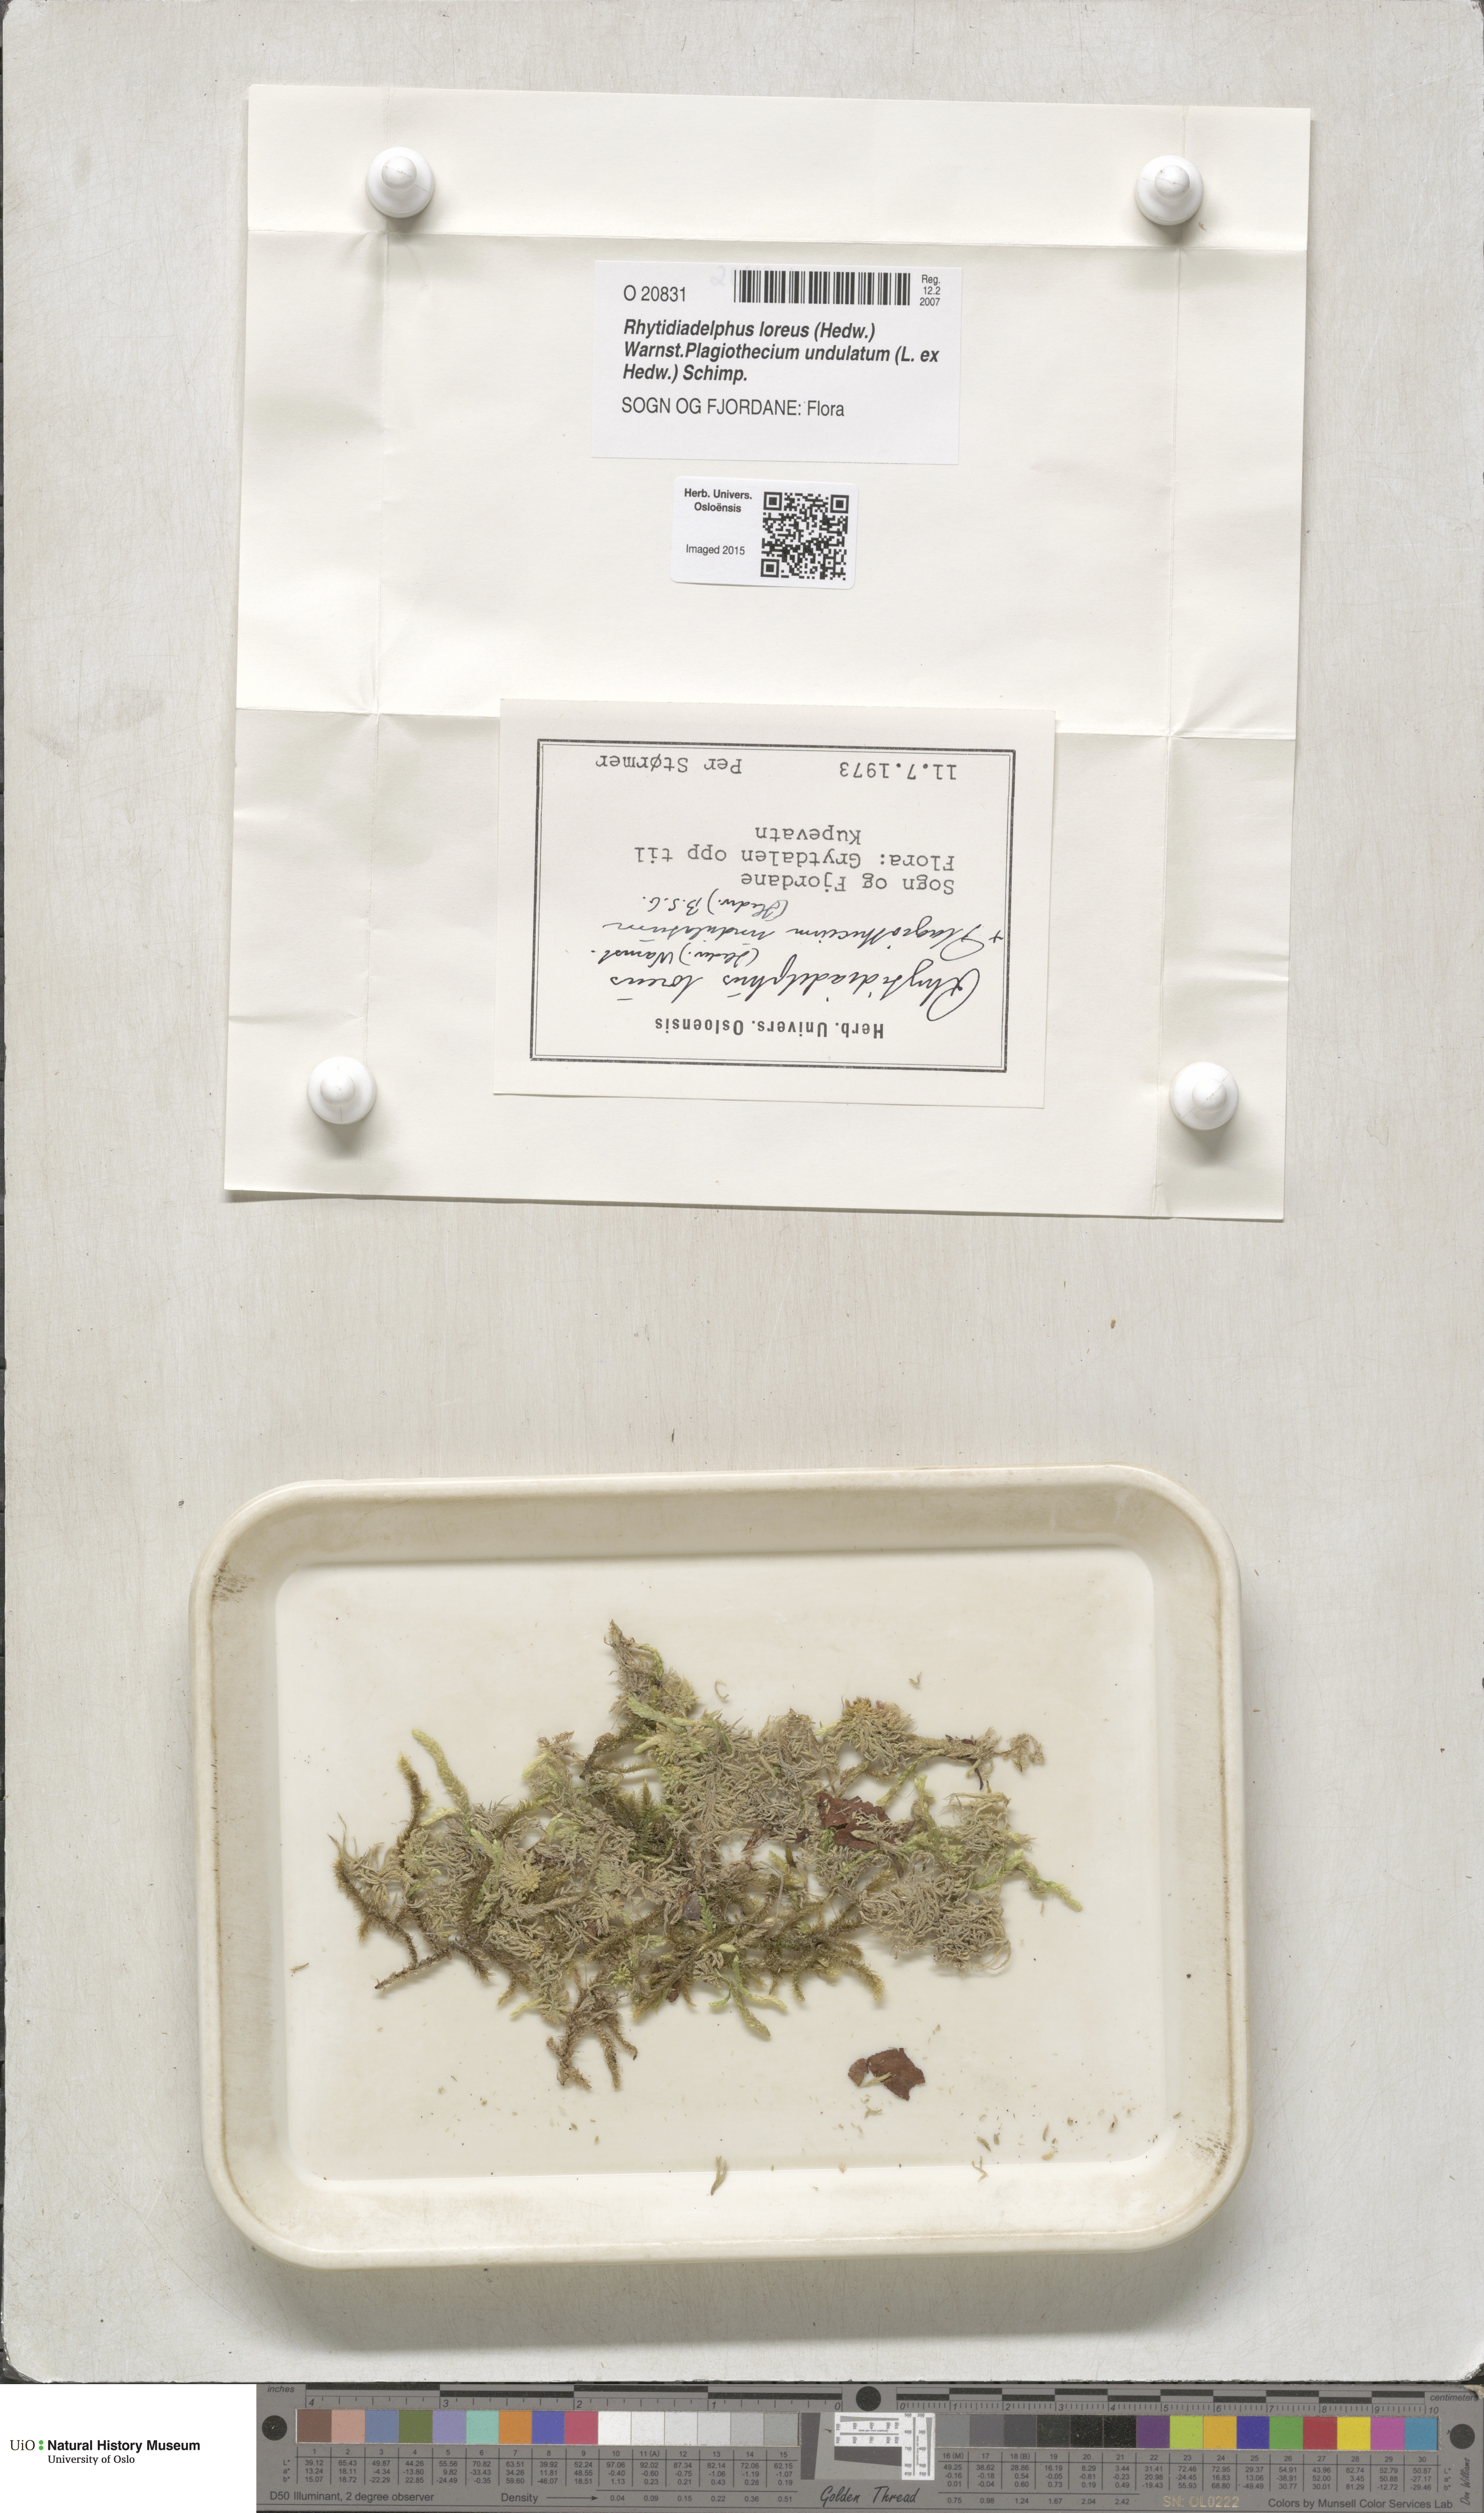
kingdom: Plantae
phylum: Bryophyta
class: Bryopsida
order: Hypnales
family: Hylocomiaceae
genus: Rhytidiadelphus
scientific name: Rhytidiadelphus loreus
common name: Lanky moss
